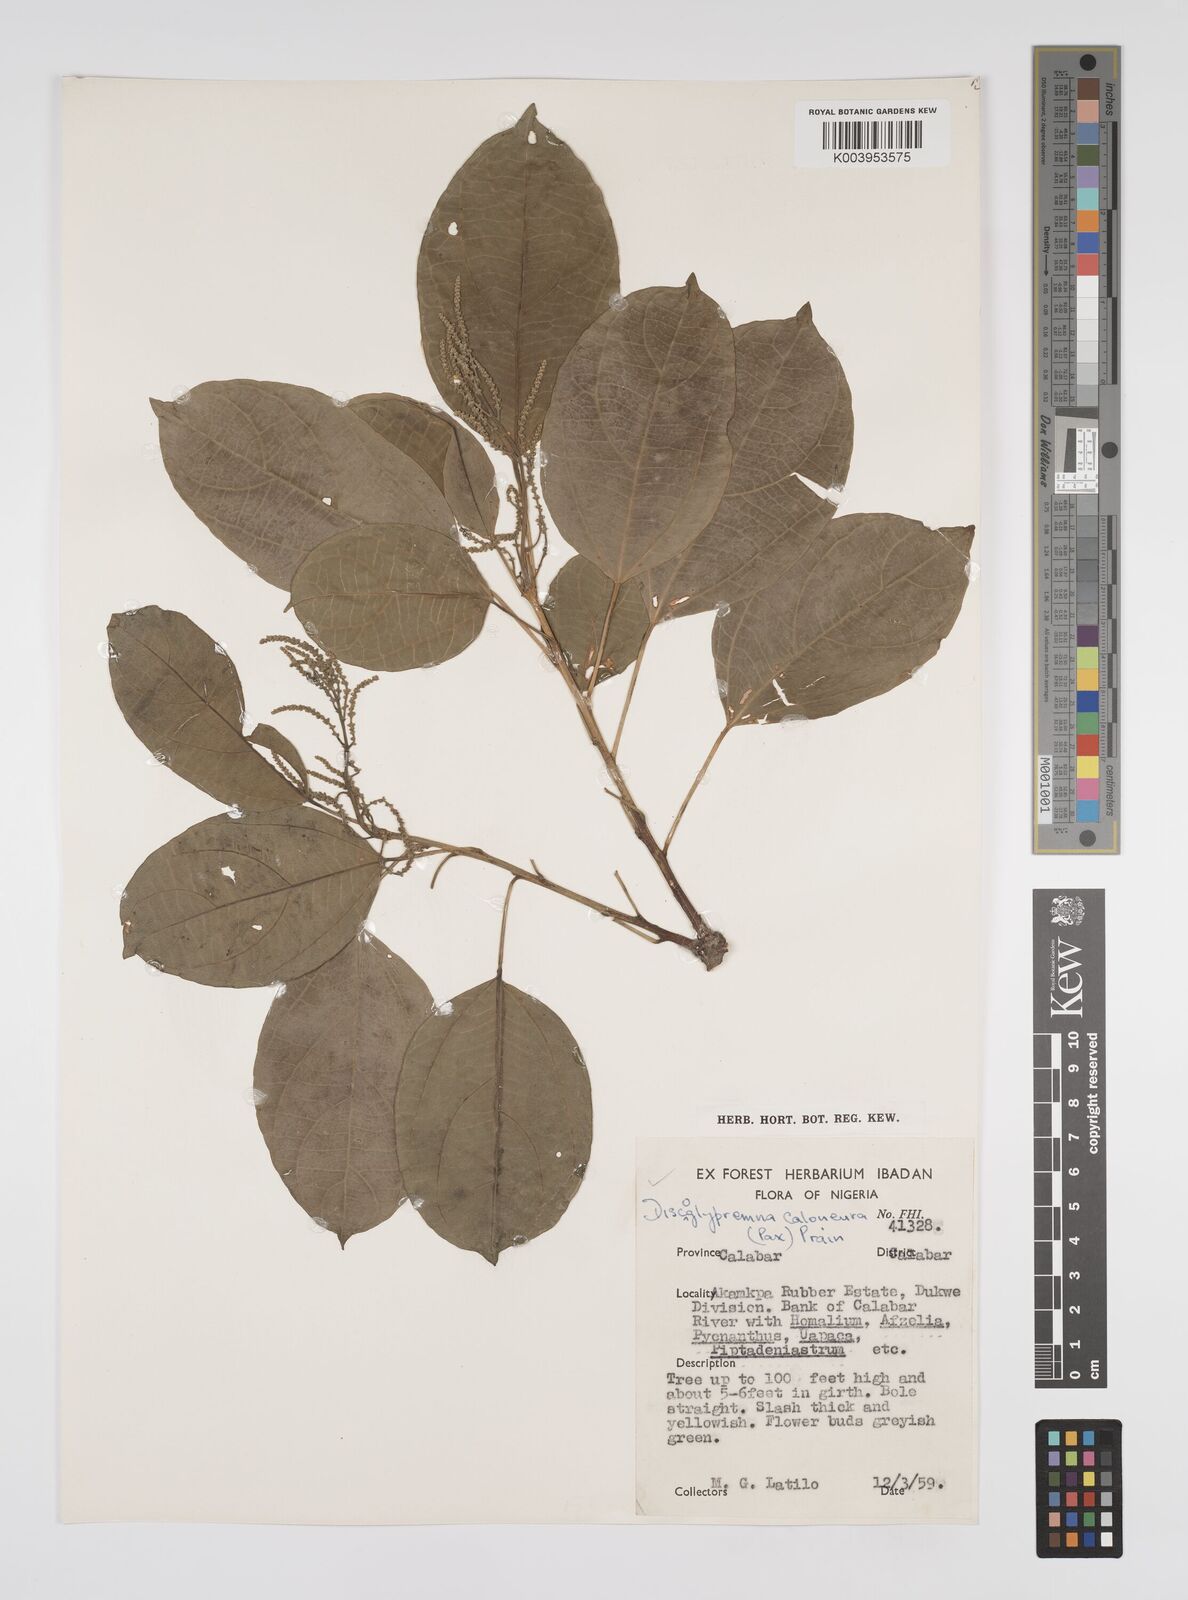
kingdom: Plantae
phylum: Tracheophyta
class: Magnoliopsida
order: Malpighiales
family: Euphorbiaceae
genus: Discoglypremna
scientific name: Discoglypremna caloneura
